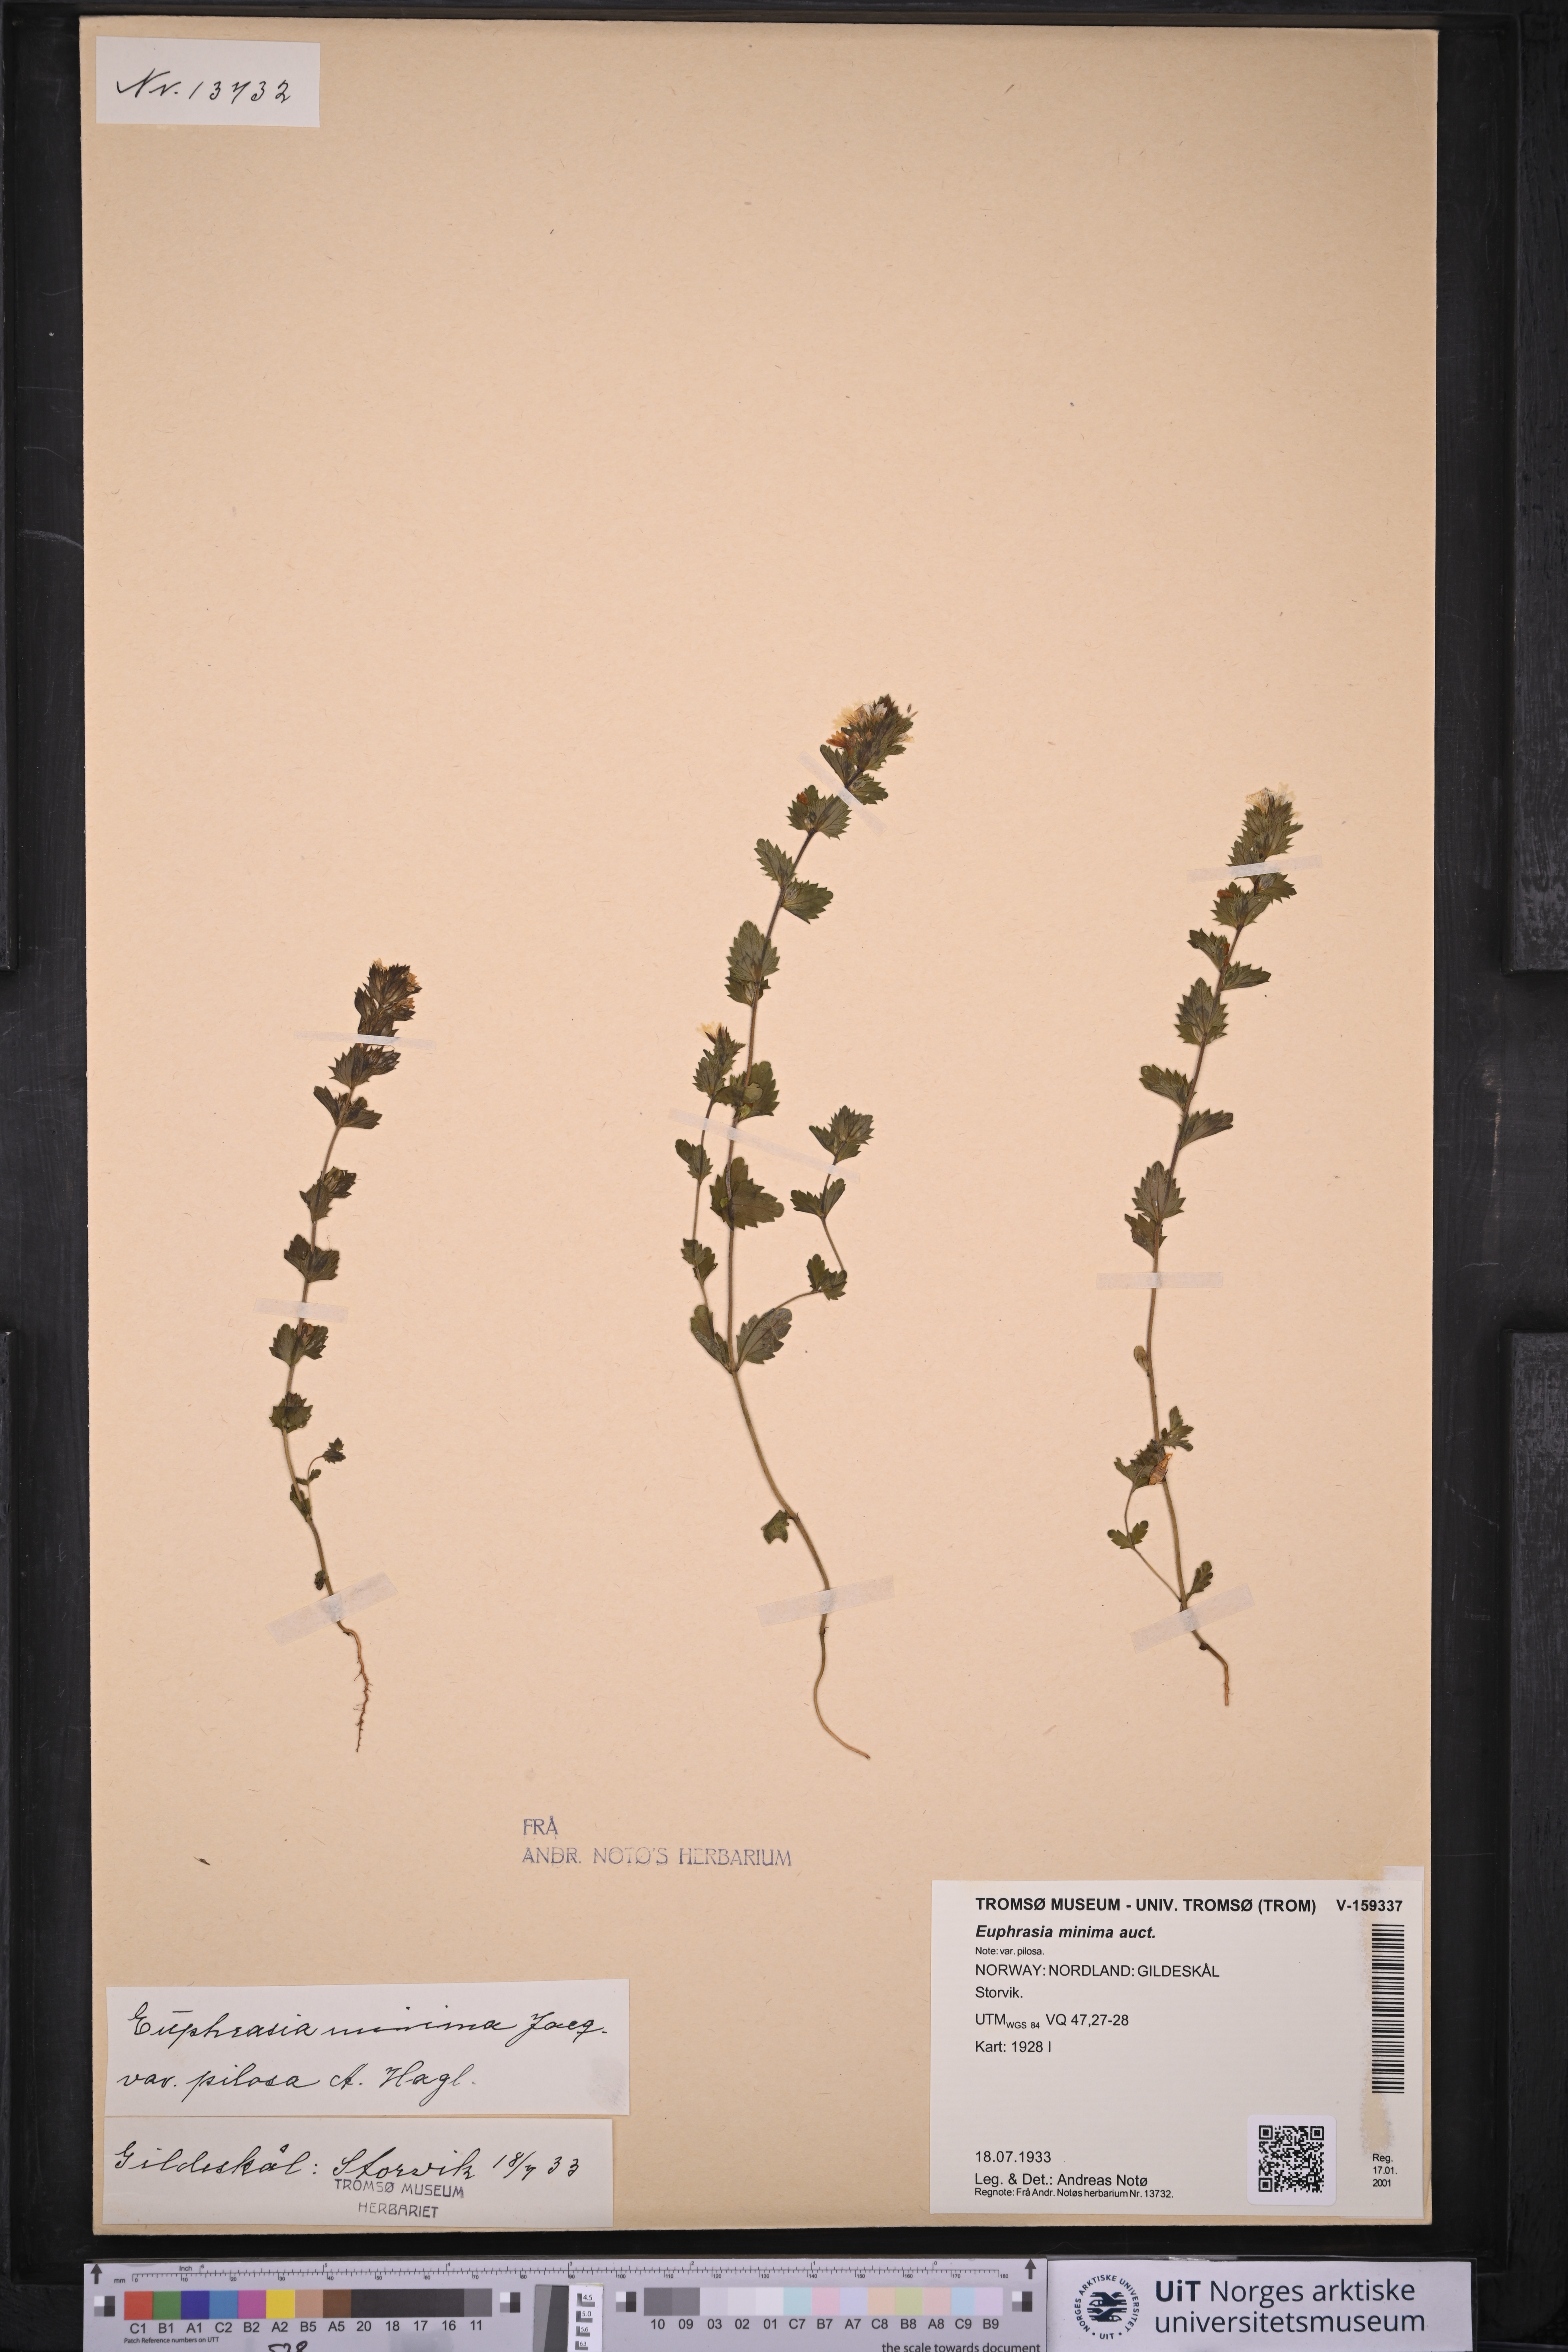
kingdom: Plantae
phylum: Tracheophyta
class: Magnoliopsida
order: Lamiales
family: Orobanchaceae
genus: Euphrasia
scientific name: Euphrasia wettsteinii
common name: Wettstein's eyebright
